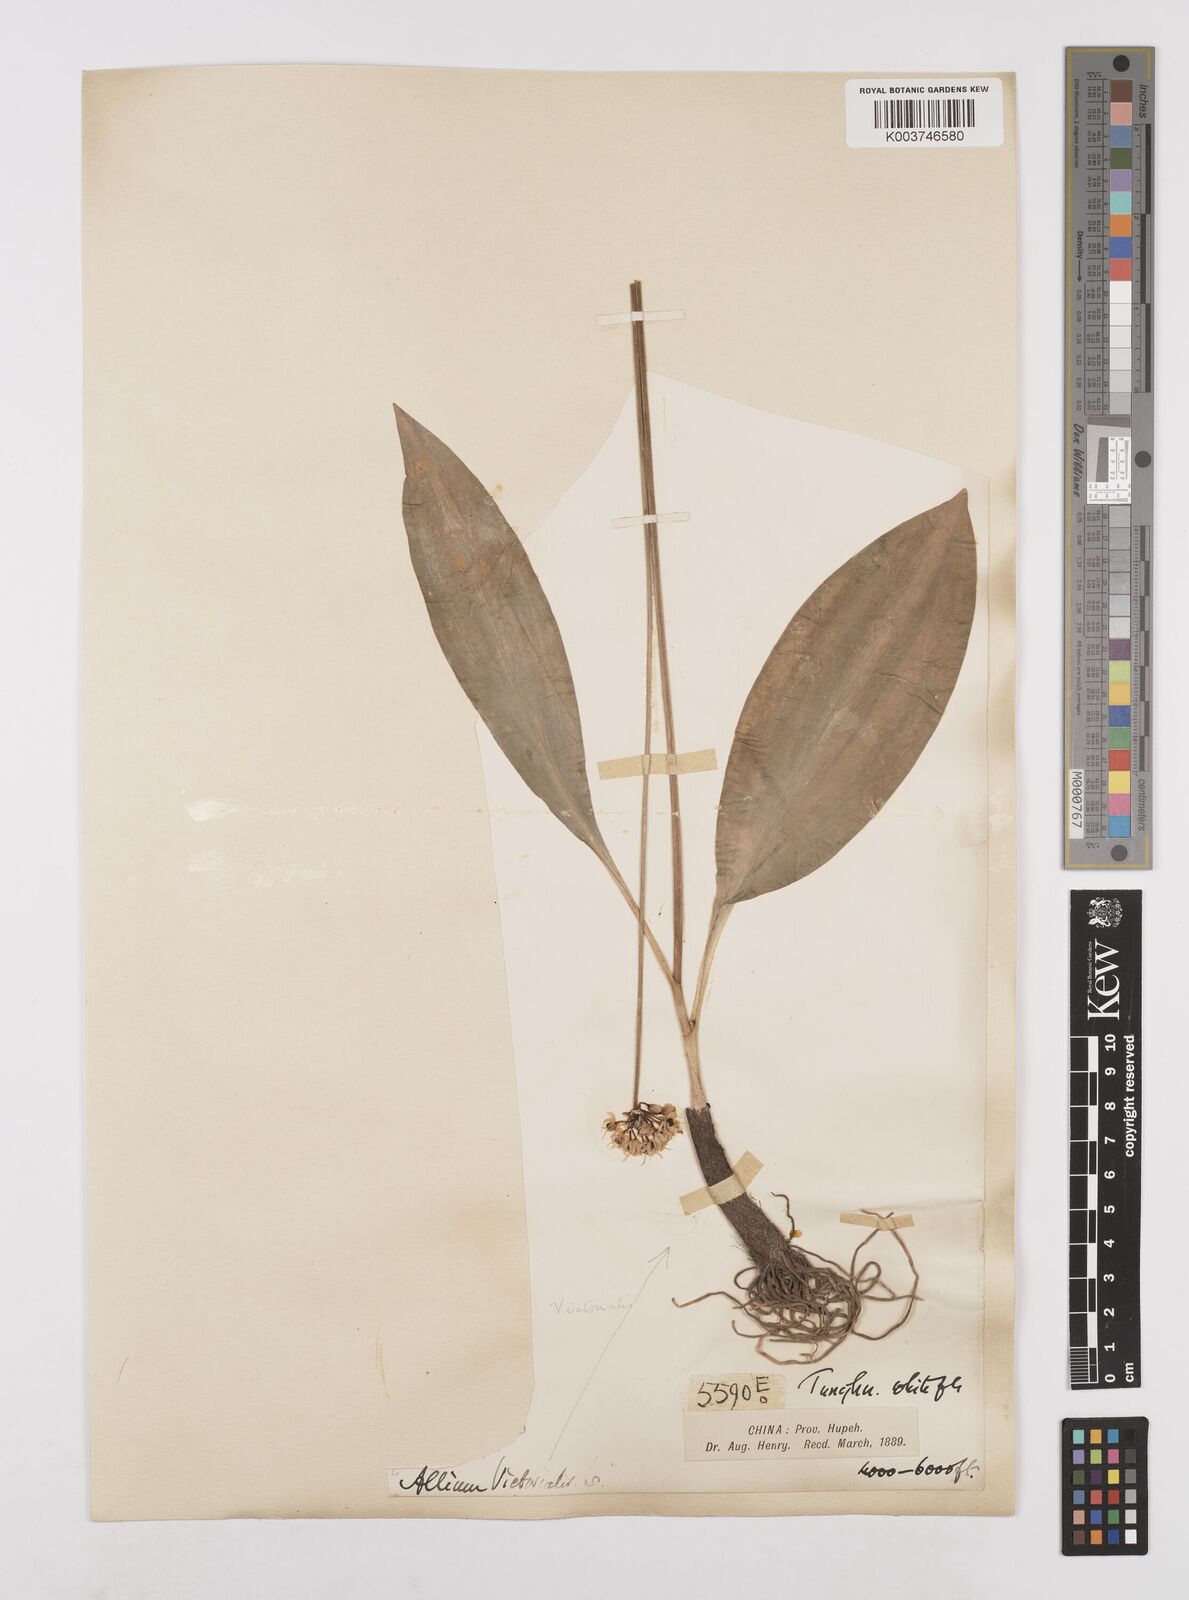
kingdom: Plantae
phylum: Tracheophyta
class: Liliopsida
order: Asparagales
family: Amaryllidaceae
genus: Allium
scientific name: Allium victorialis
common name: Alpine leek
